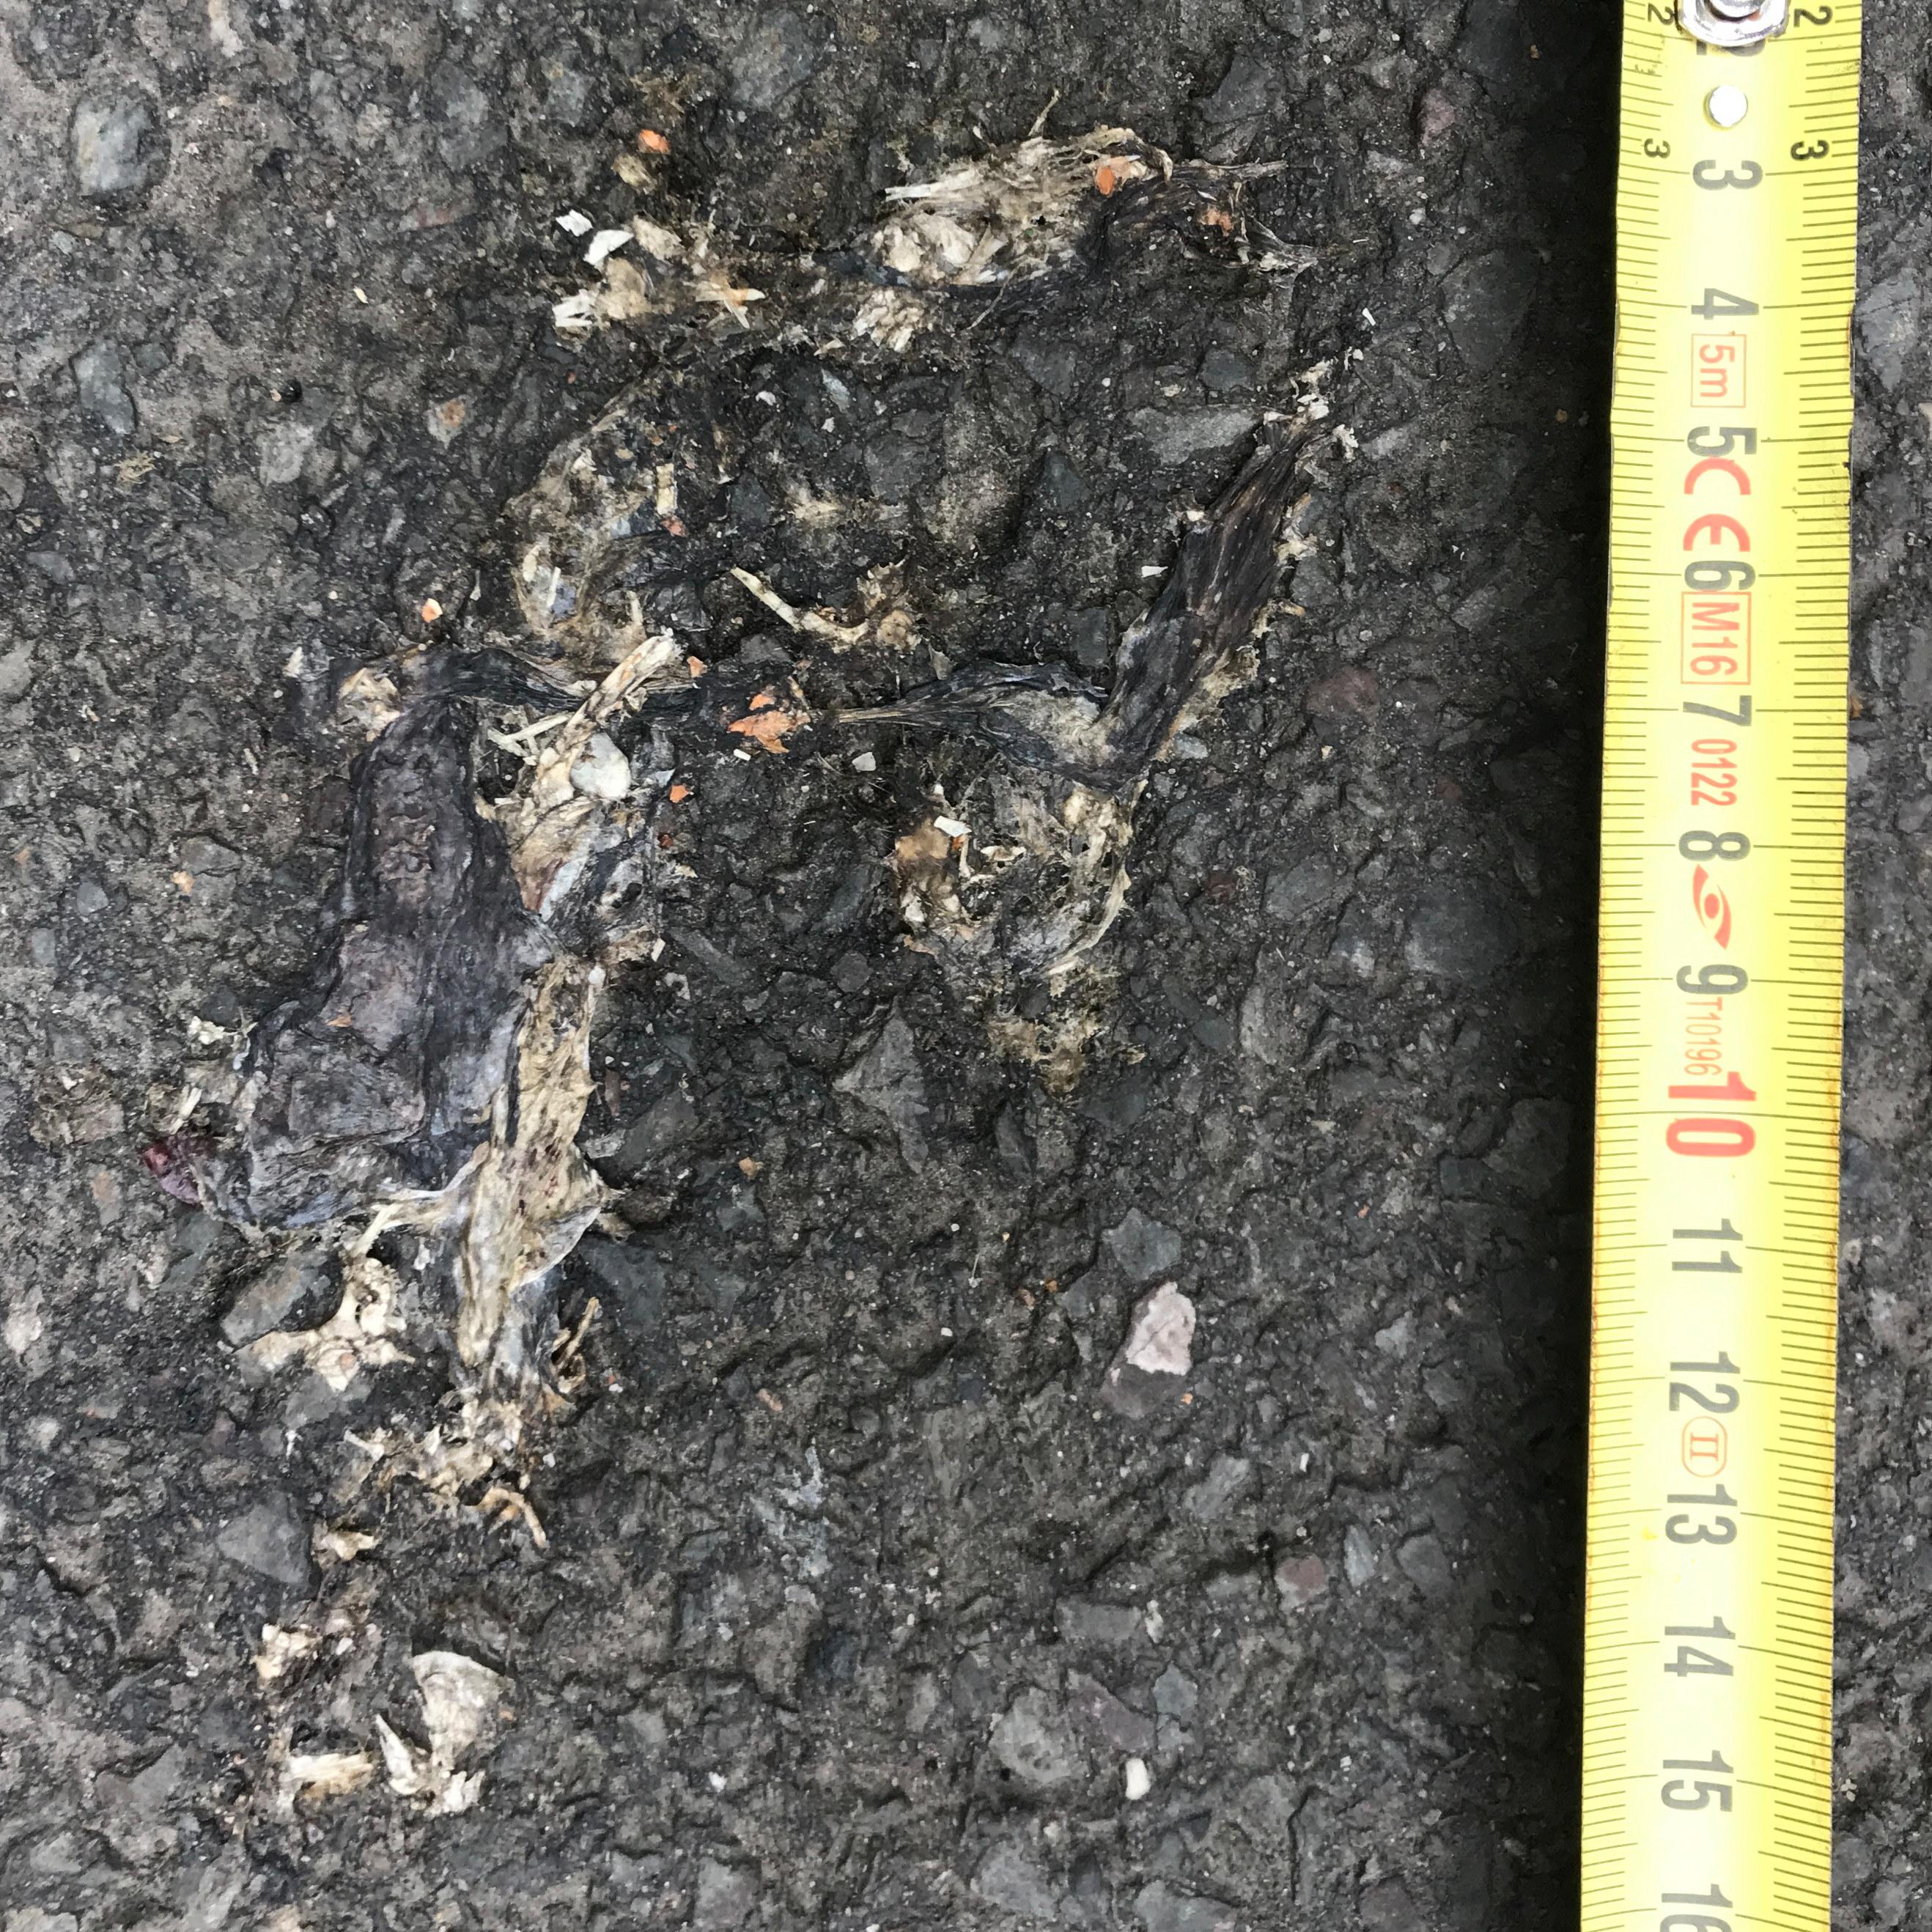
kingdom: Animalia
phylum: Chordata
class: Amphibia
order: Anura
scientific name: Anura
